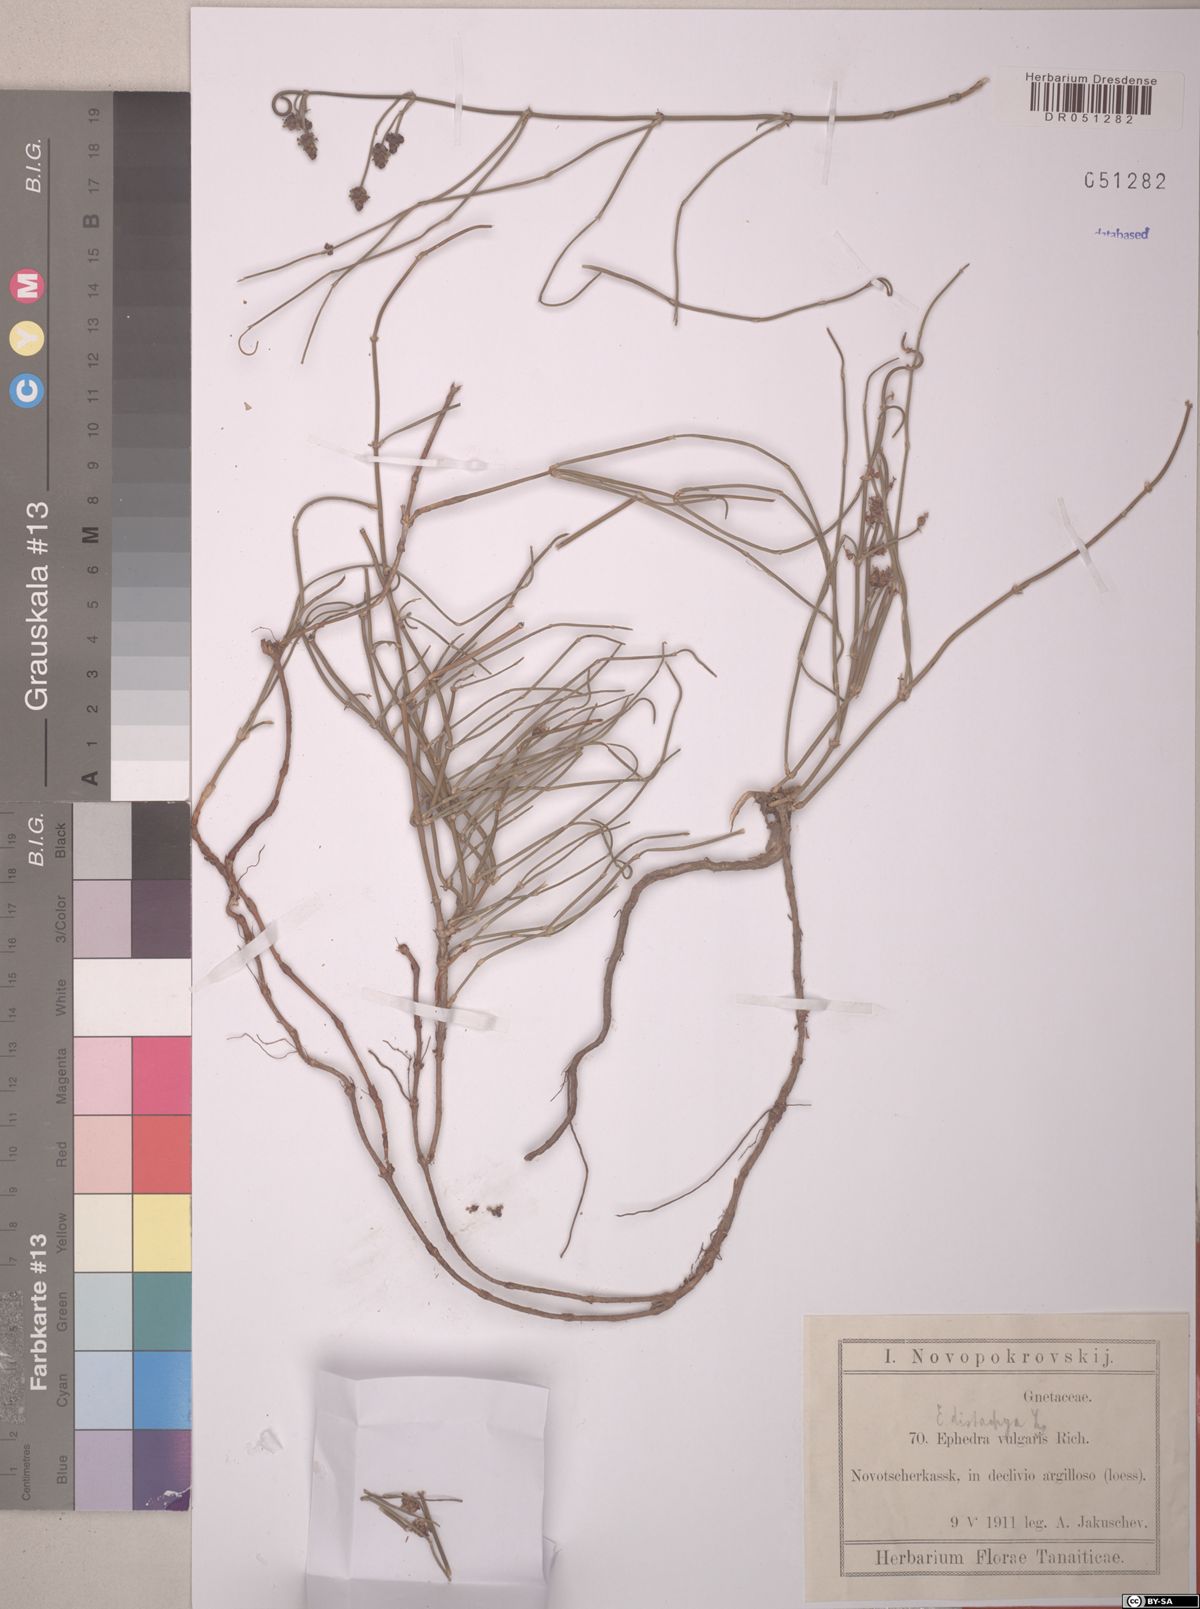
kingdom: Plantae
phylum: Tracheophyta
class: Gnetopsida
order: Ephedrales
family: Ephedraceae
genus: Ephedra
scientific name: Ephedra distachya
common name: Sea grape
